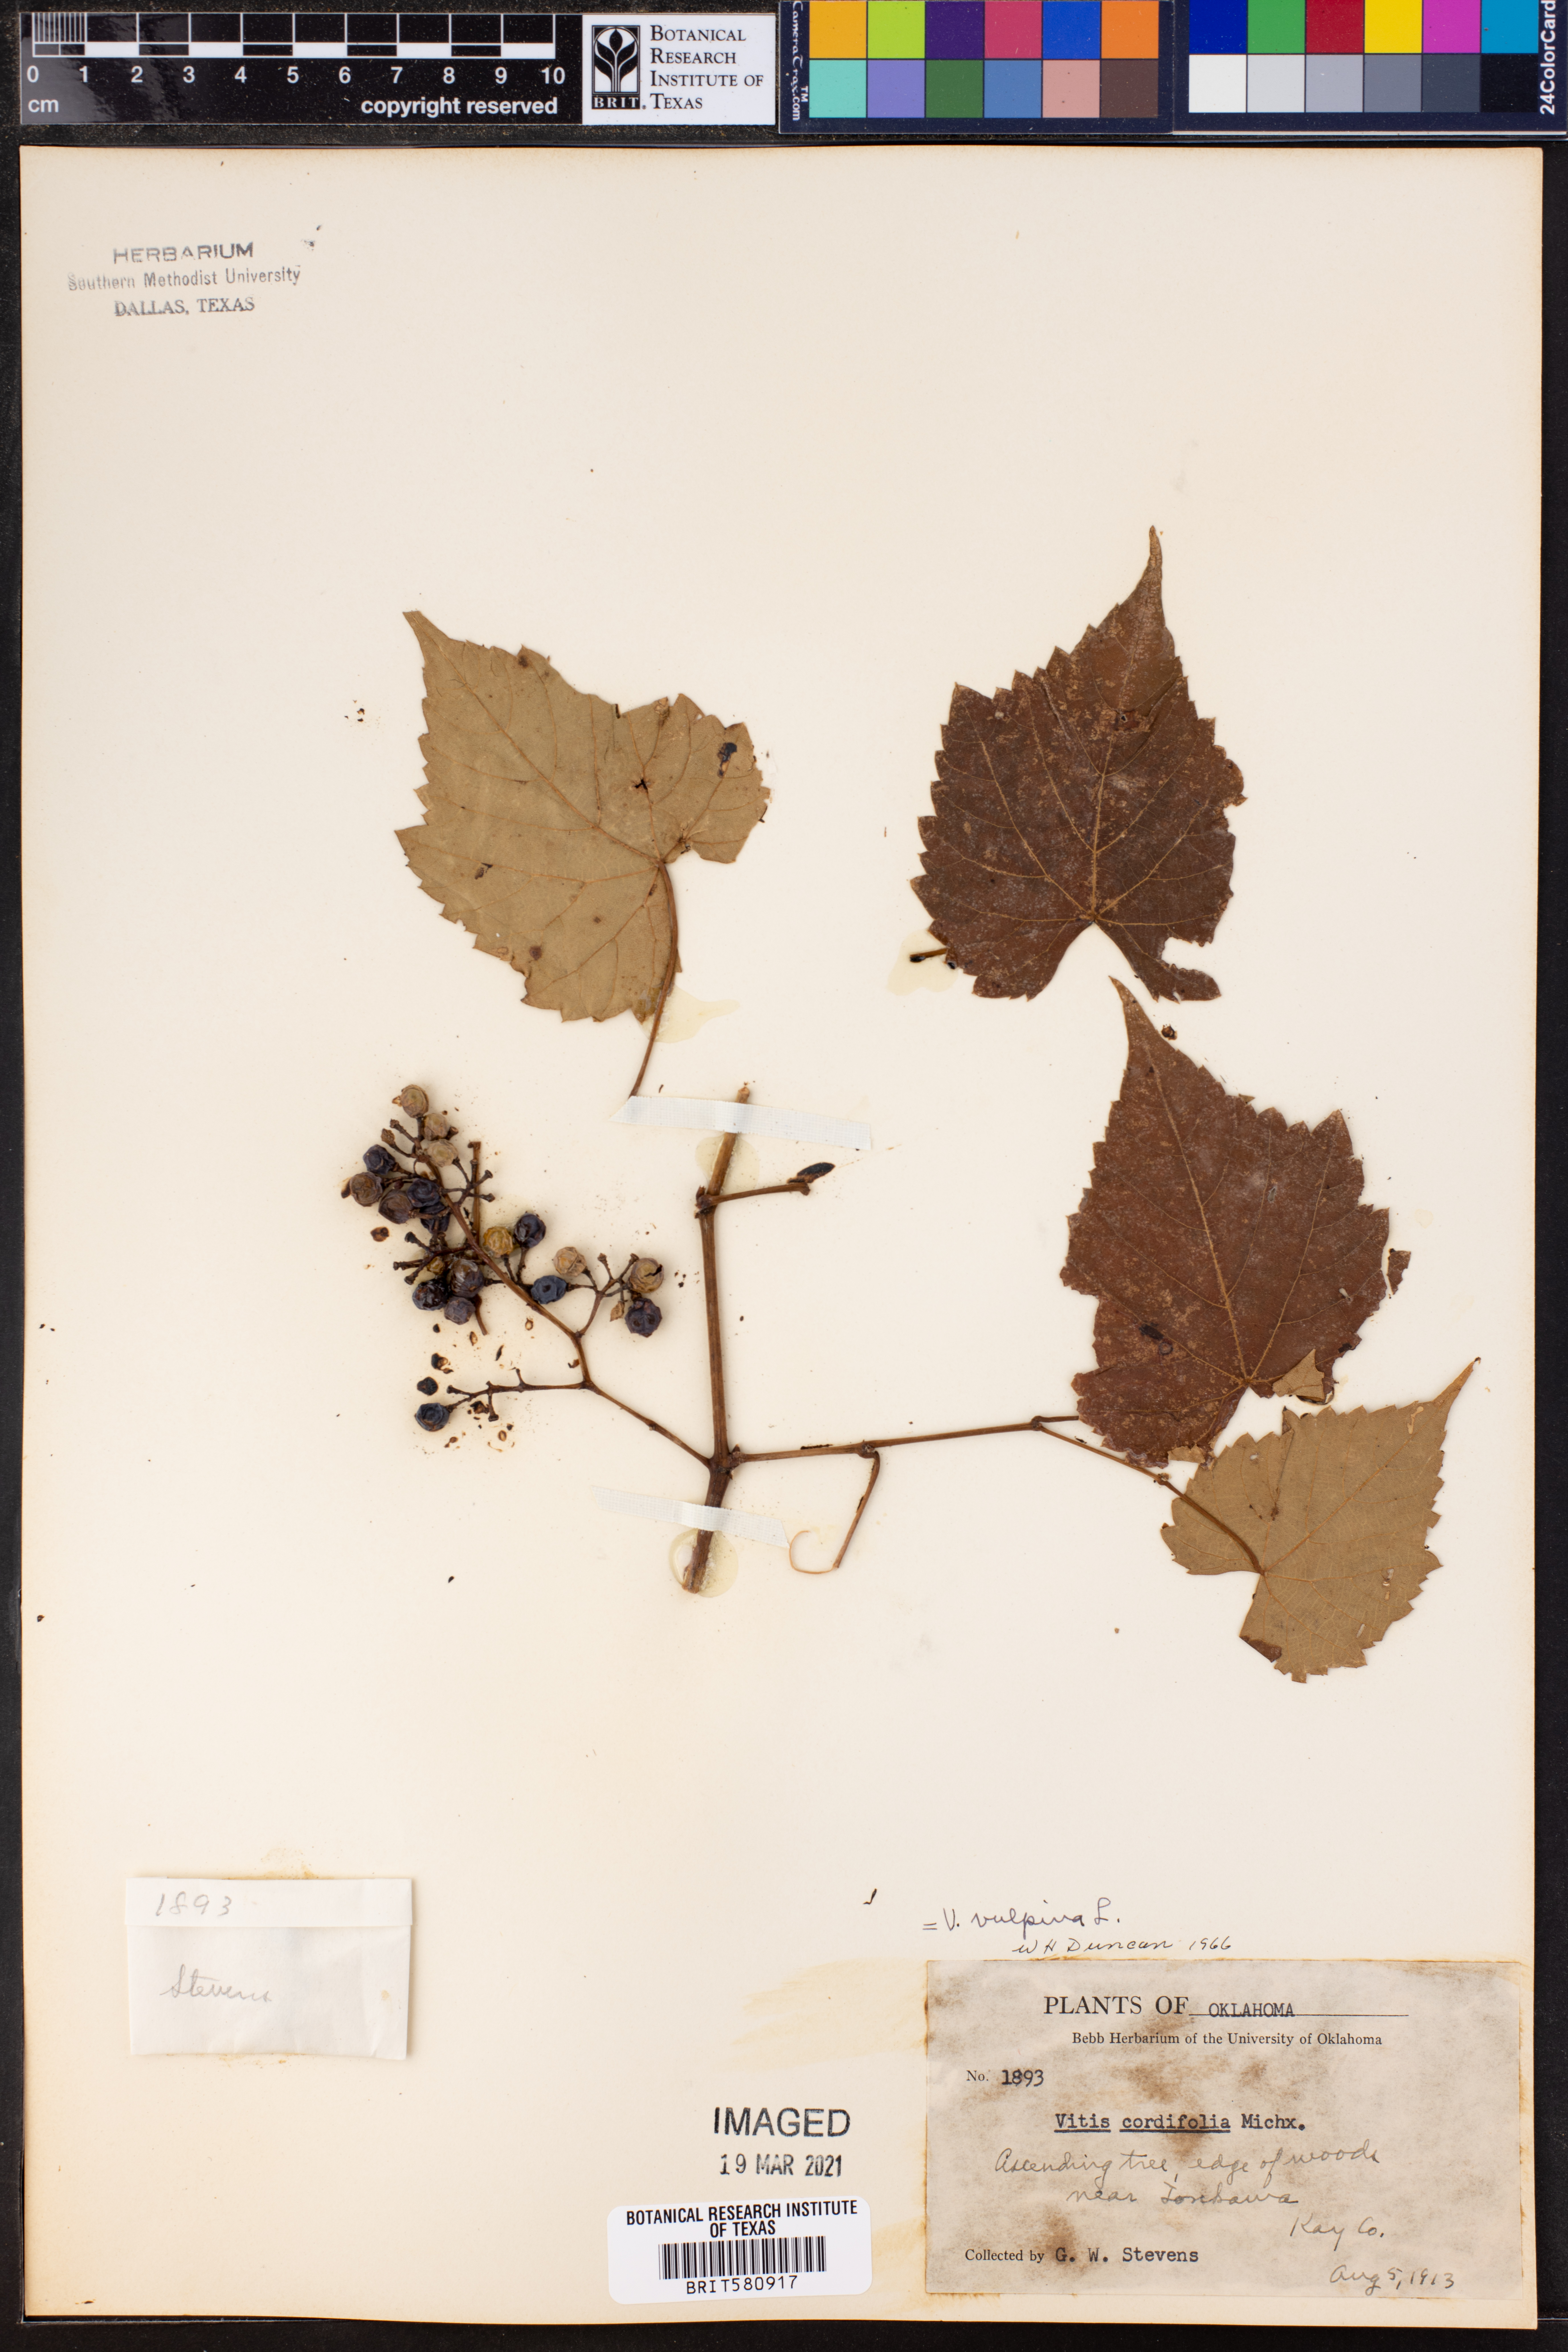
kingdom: Plantae
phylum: Tracheophyta
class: Magnoliopsida
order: Vitales
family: Vitaceae
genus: Vitis
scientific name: Vitis vulpina
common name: Frost grape
